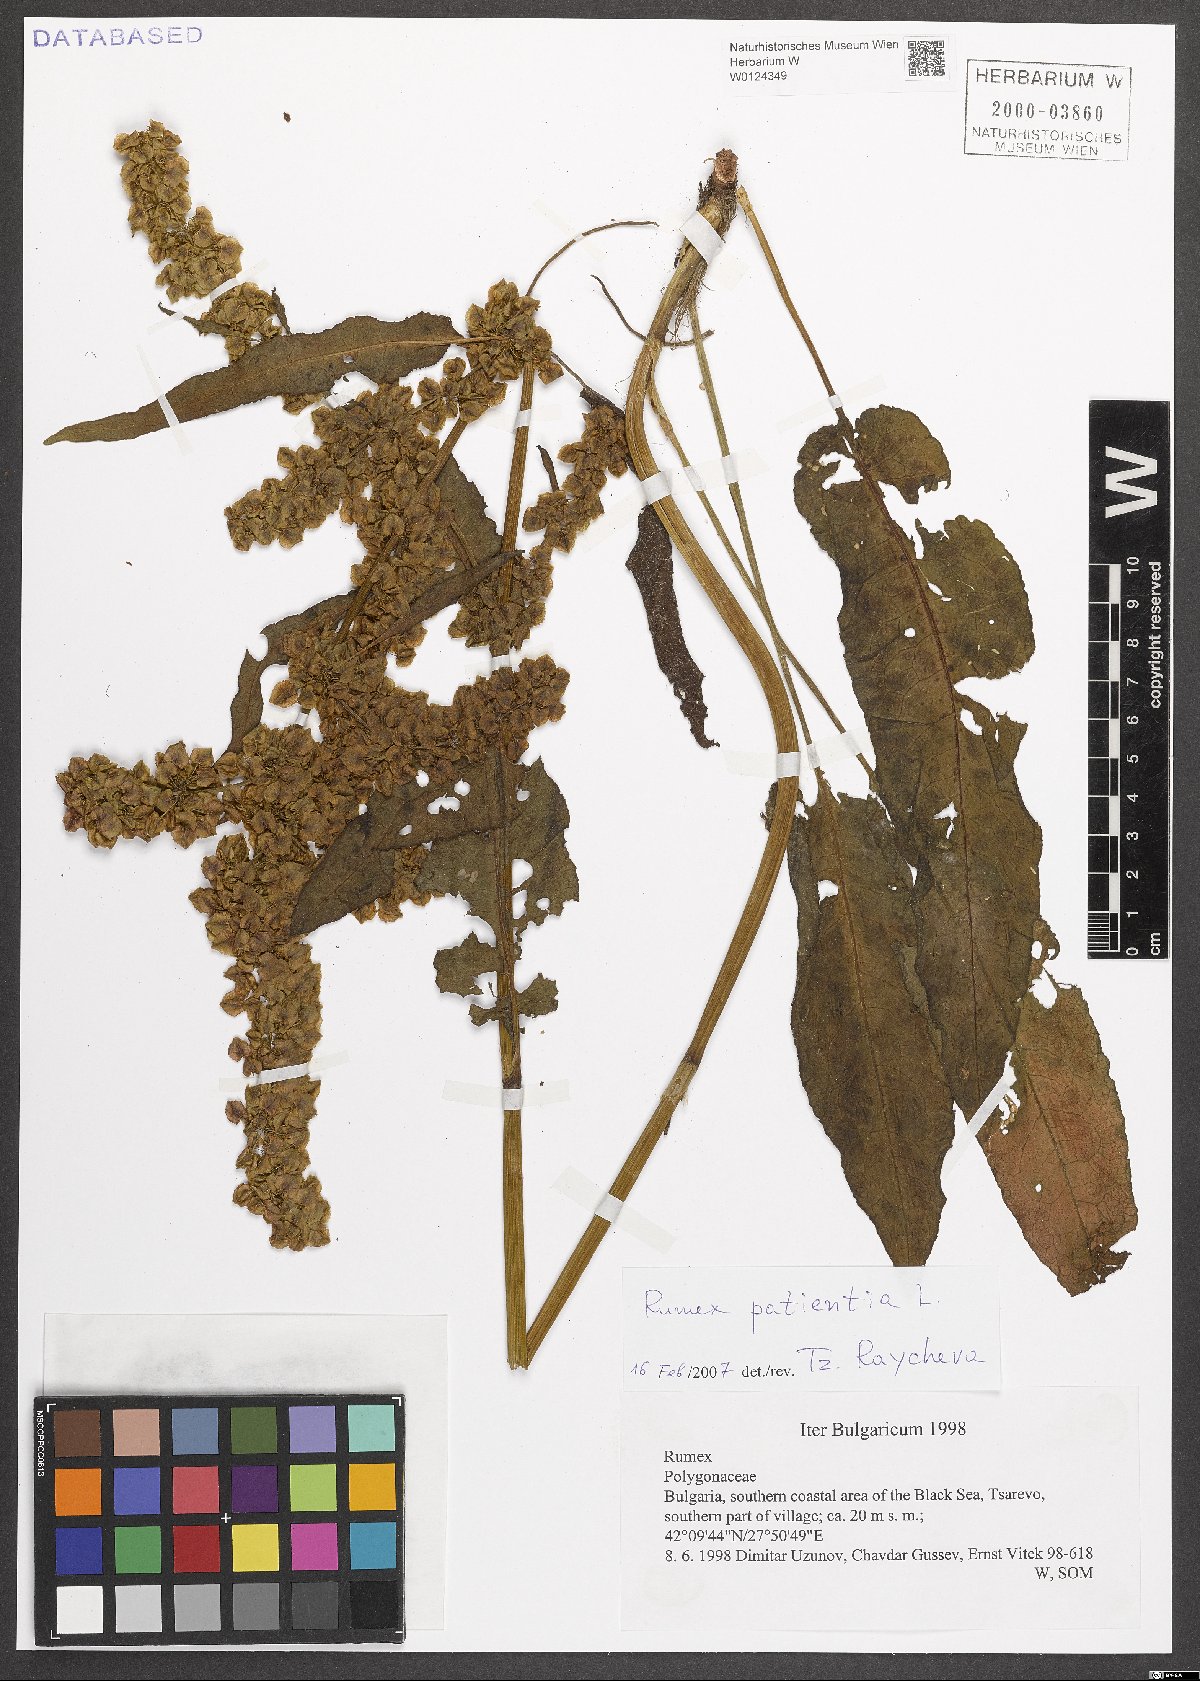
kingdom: Plantae
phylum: Tracheophyta
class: Magnoliopsida
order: Caryophyllales
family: Polygonaceae
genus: Rumex
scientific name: Rumex patientia
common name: Patience dock
